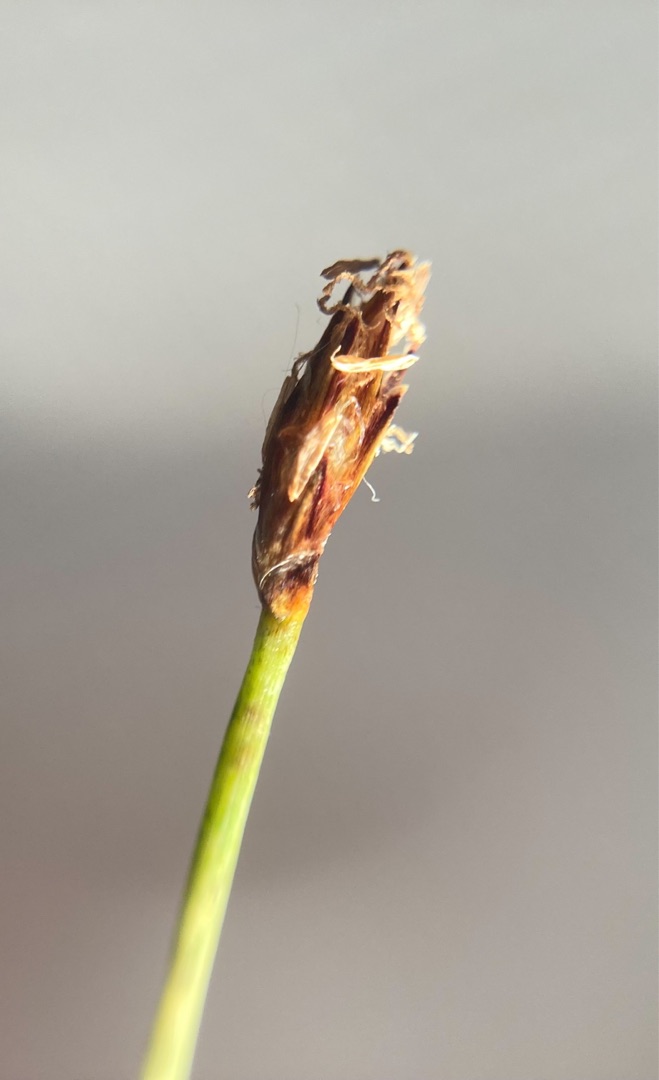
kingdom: Plantae
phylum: Tracheophyta
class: Liliopsida
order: Poales
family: Cyperaceae
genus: Eleocharis
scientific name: Eleocharis uniglumis
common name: Enskællet sumpstrå
